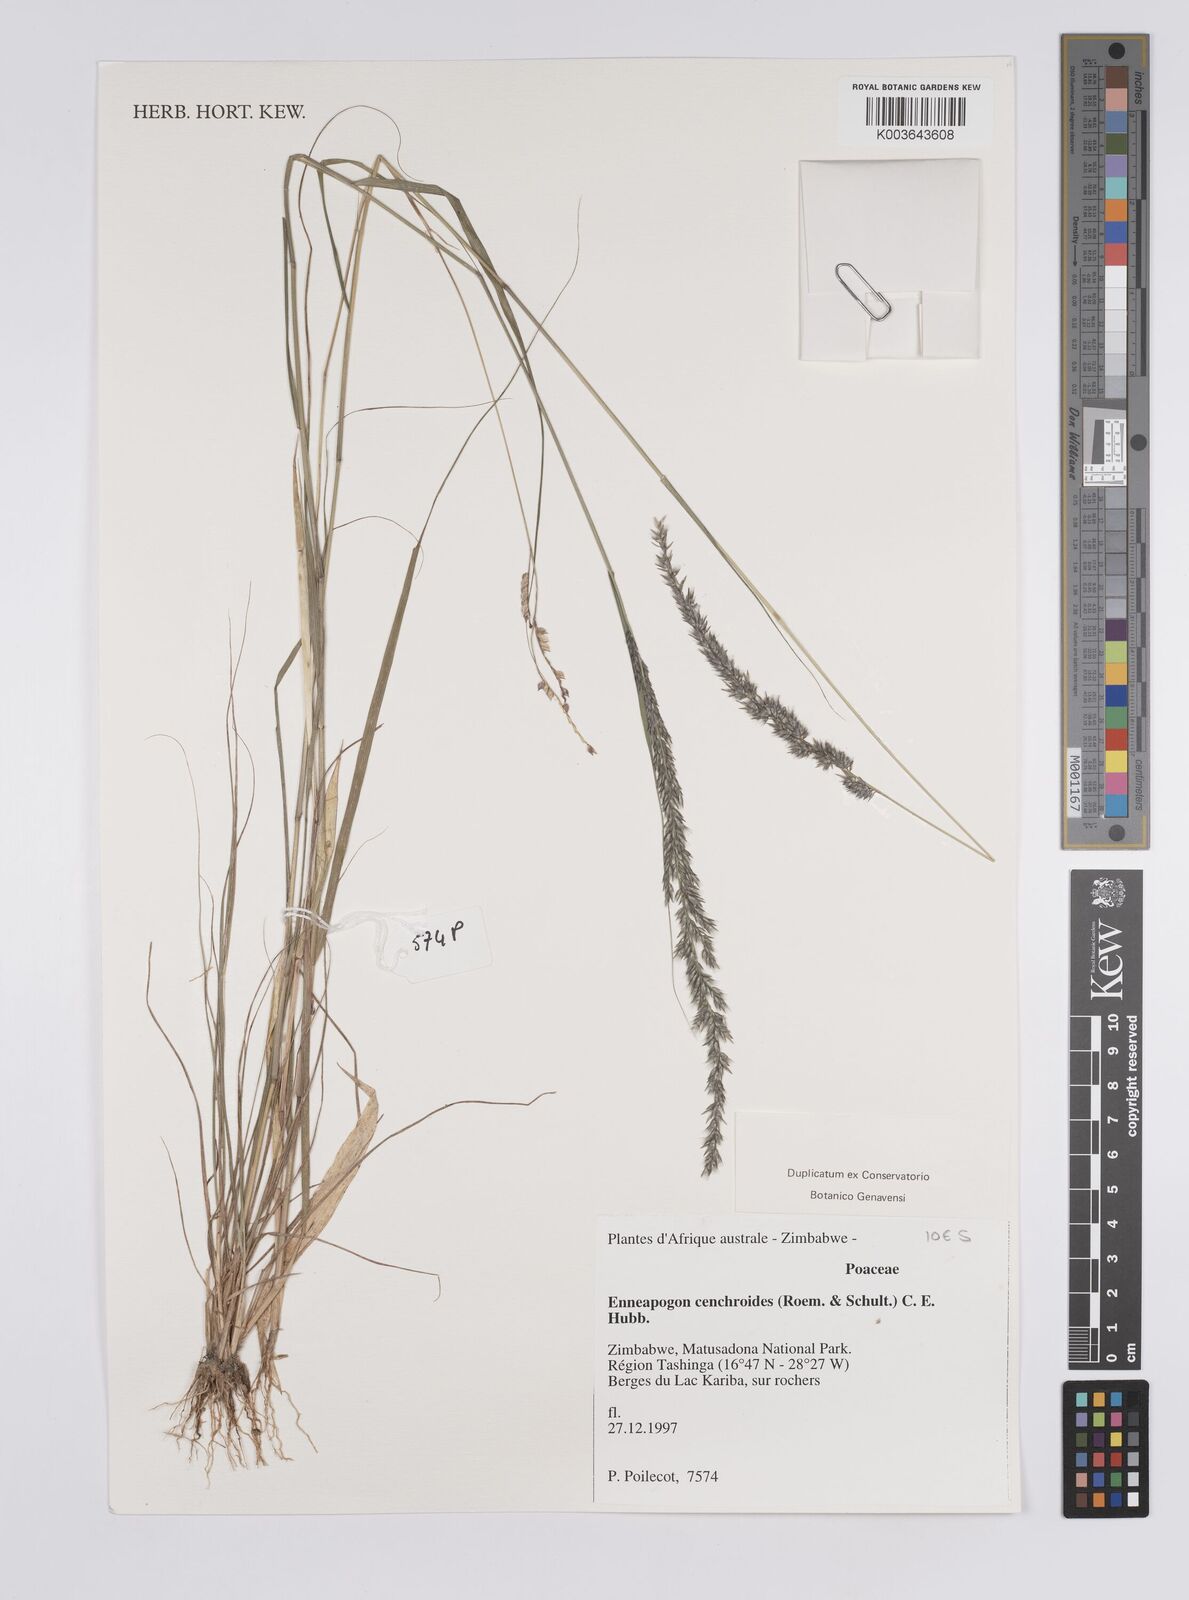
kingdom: Plantae
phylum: Tracheophyta
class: Liliopsida
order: Poales
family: Poaceae
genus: Enneapogon
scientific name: Enneapogon cenchroides
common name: Soft feather pappusgrass
